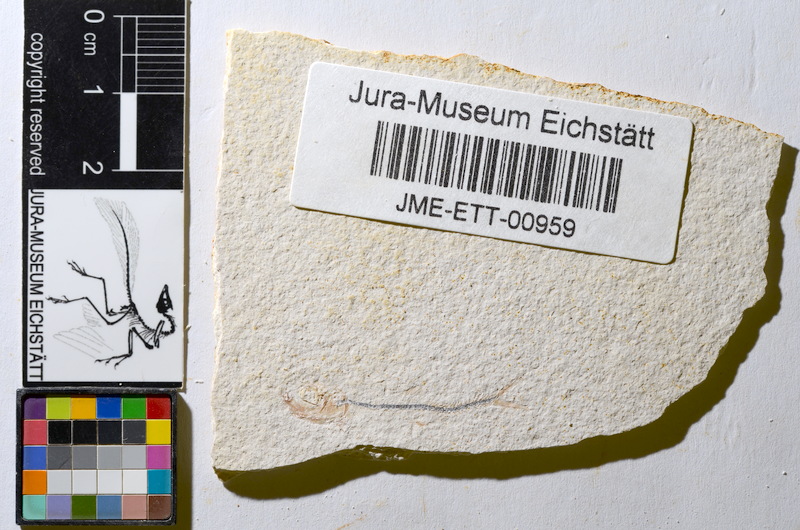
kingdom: Animalia
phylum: Chordata
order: Salmoniformes
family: Orthogonikleithridae
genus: Orthogonikleithrus
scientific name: Orthogonikleithrus hoelli
